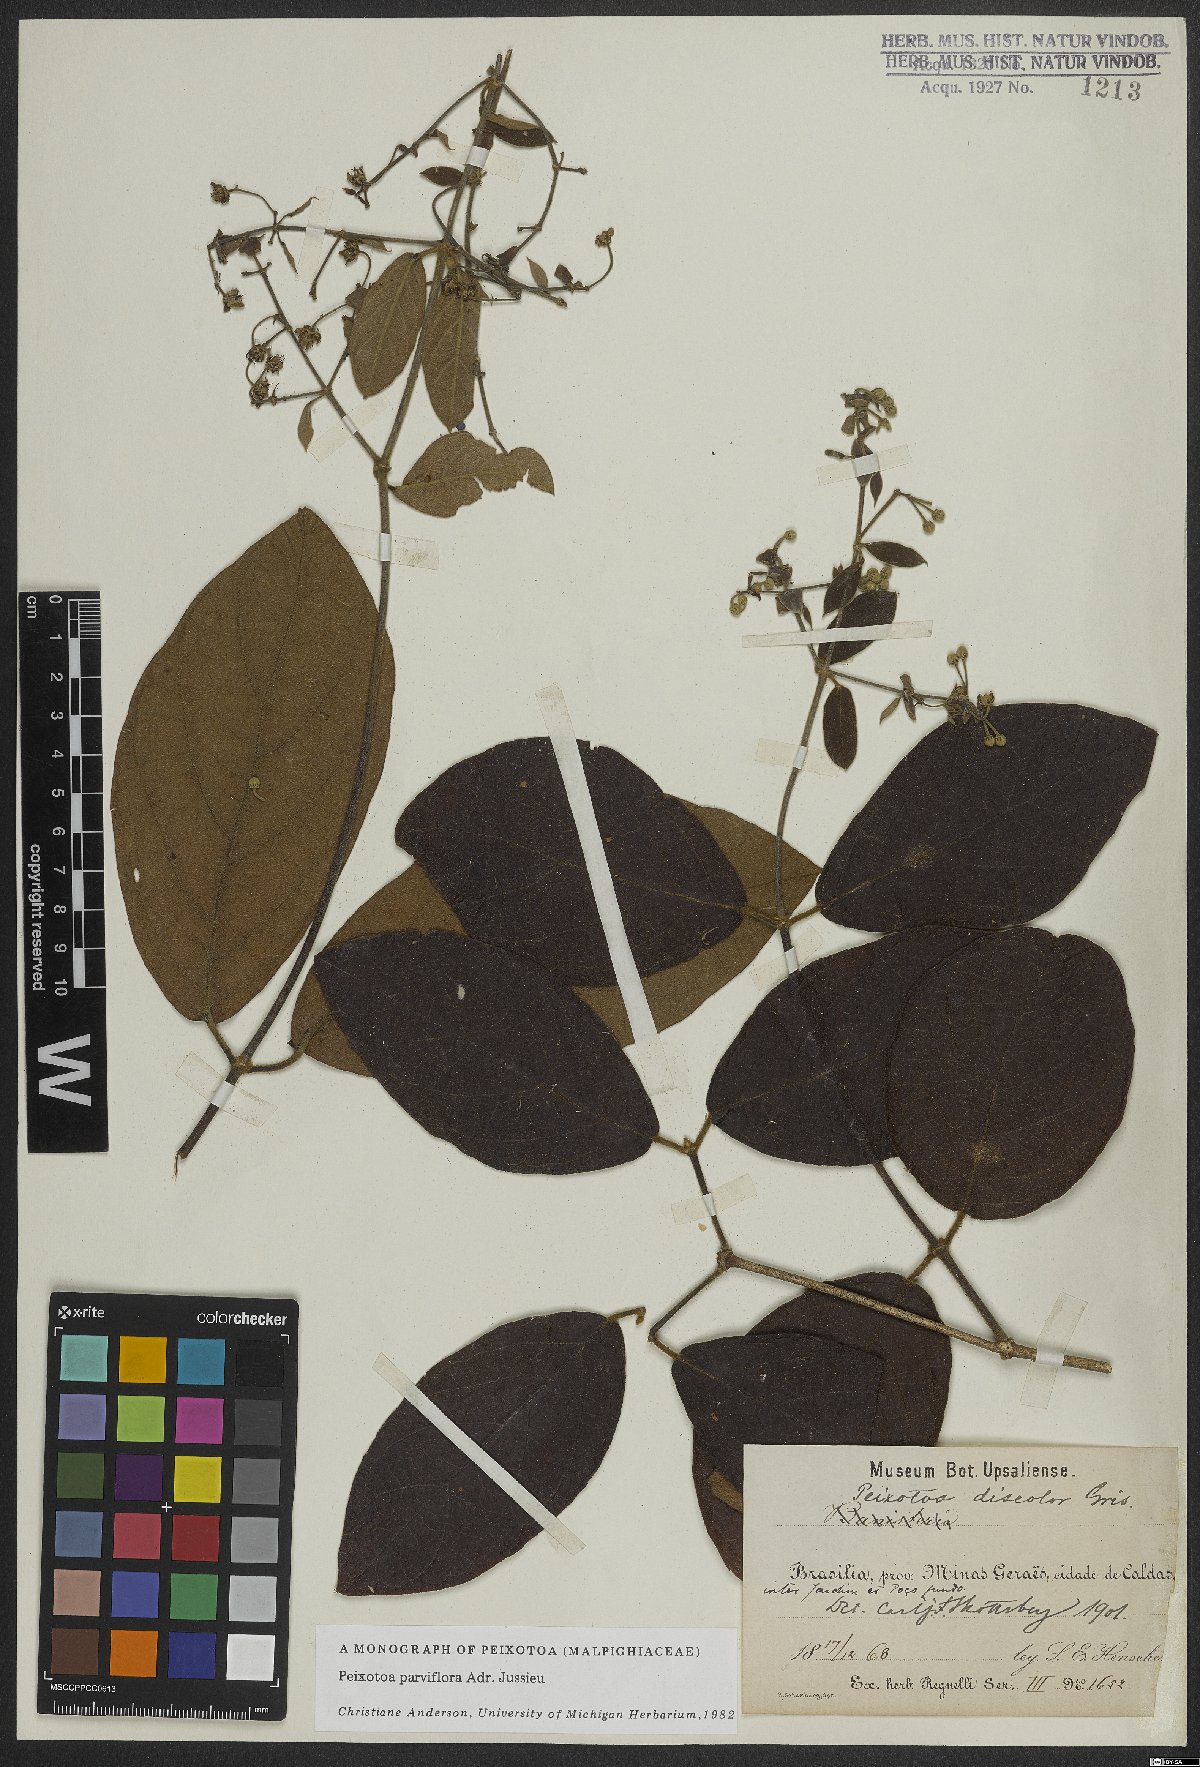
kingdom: Plantae
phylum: Tracheophyta
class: Magnoliopsida
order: Malpighiales
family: Malpighiaceae
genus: Peixotoa
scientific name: Peixotoa parviflora
